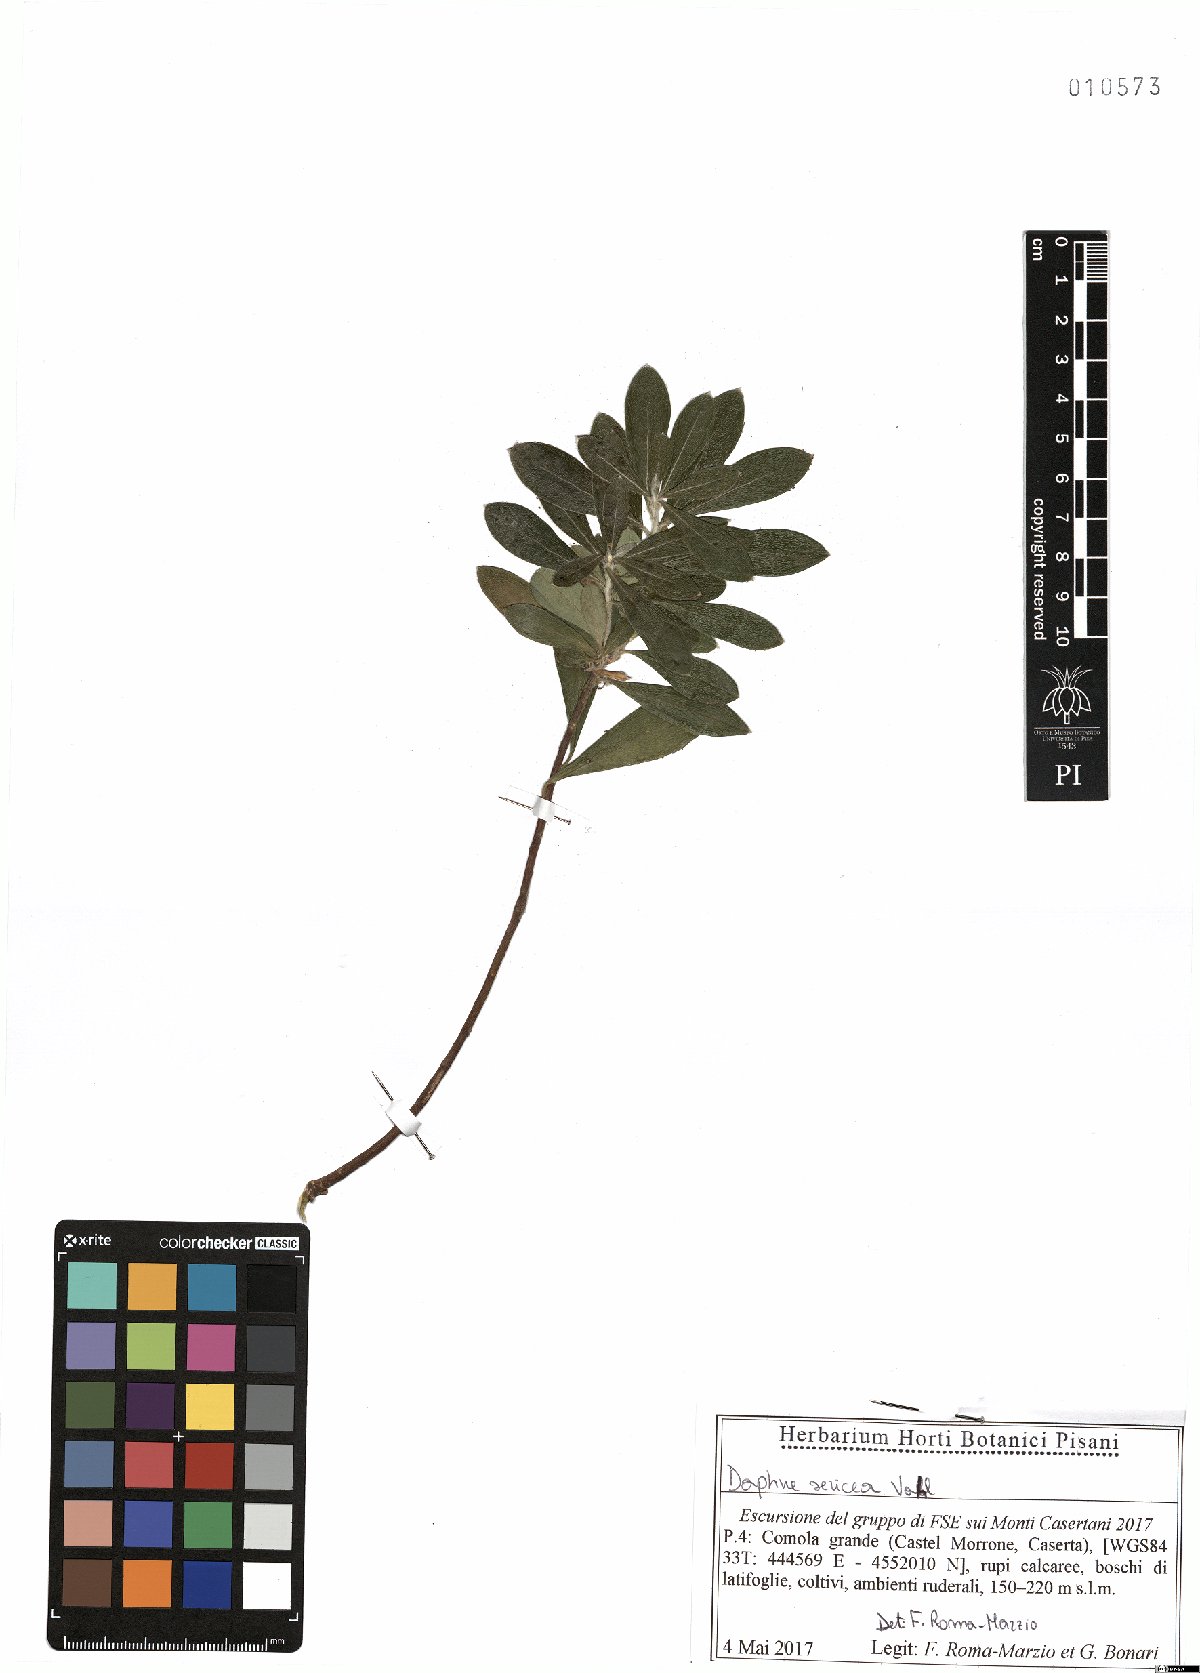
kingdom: Plantae
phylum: Tracheophyta
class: Magnoliopsida
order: Malvales
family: Thymelaeaceae
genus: Daphne
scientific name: Daphne sericea
